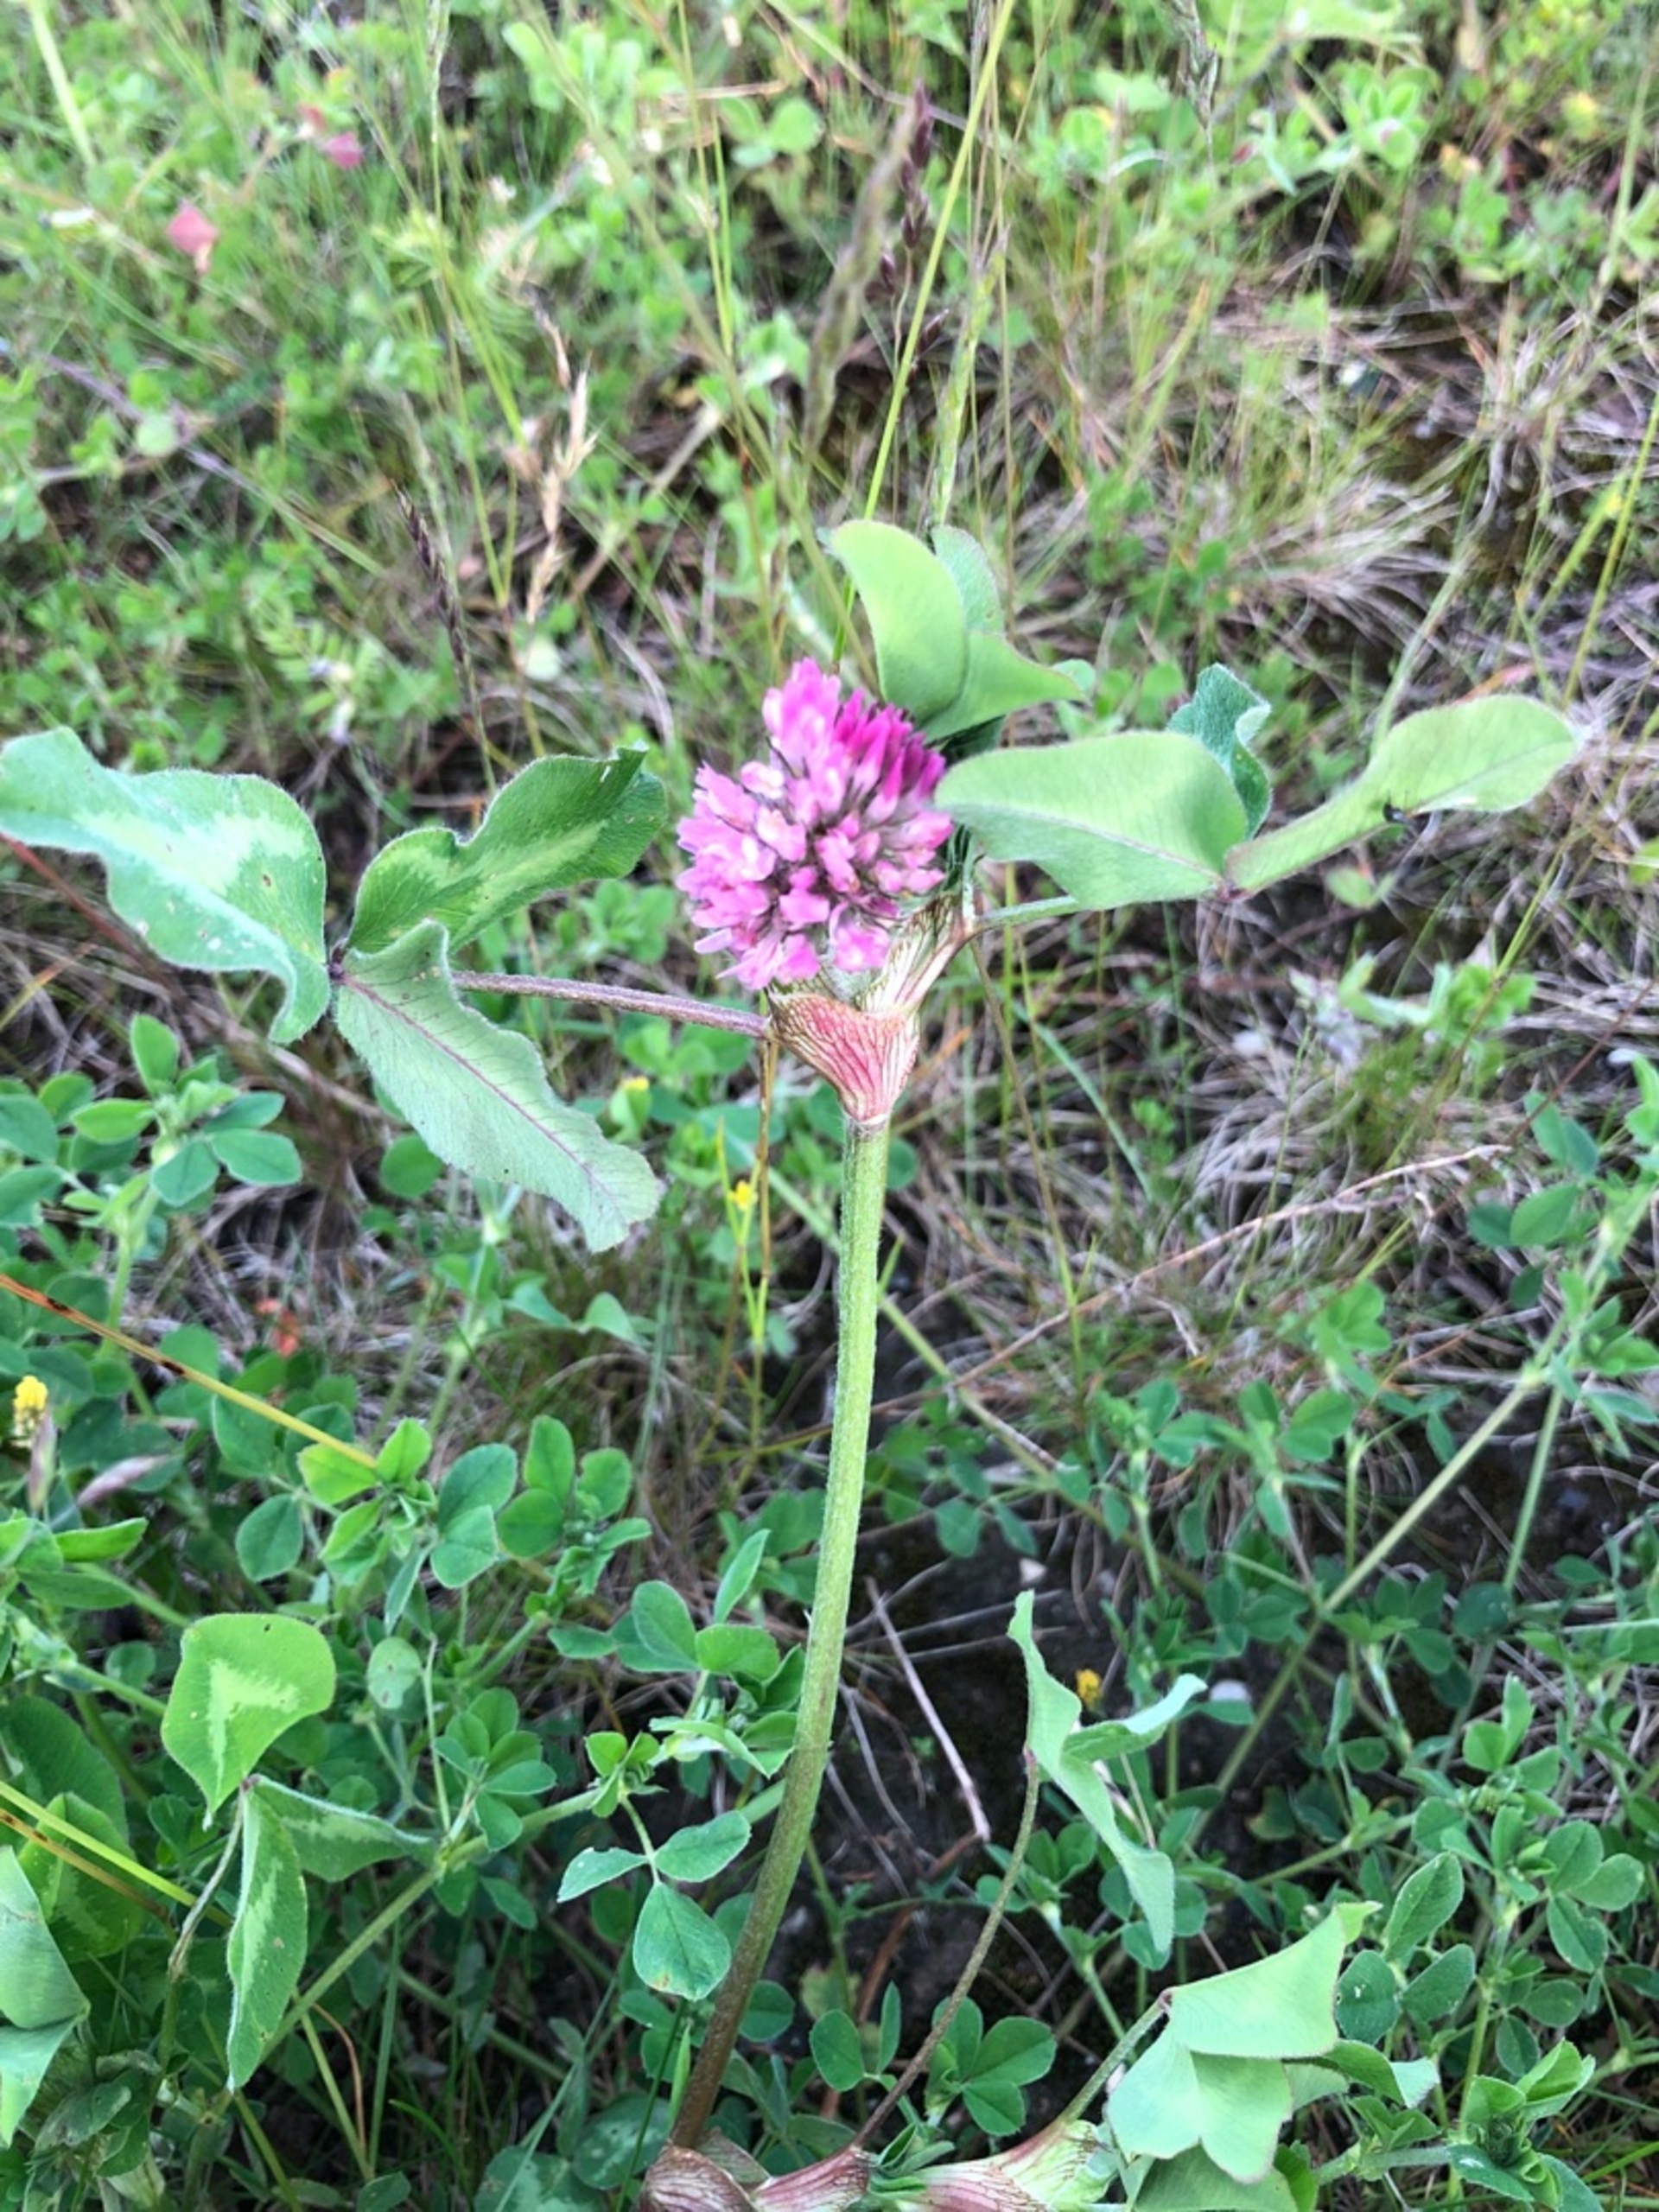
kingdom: Plantae
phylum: Tracheophyta
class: Magnoliopsida
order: Fabales
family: Fabaceae
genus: Trifolium
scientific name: Trifolium pratense
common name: Rød-kløver
